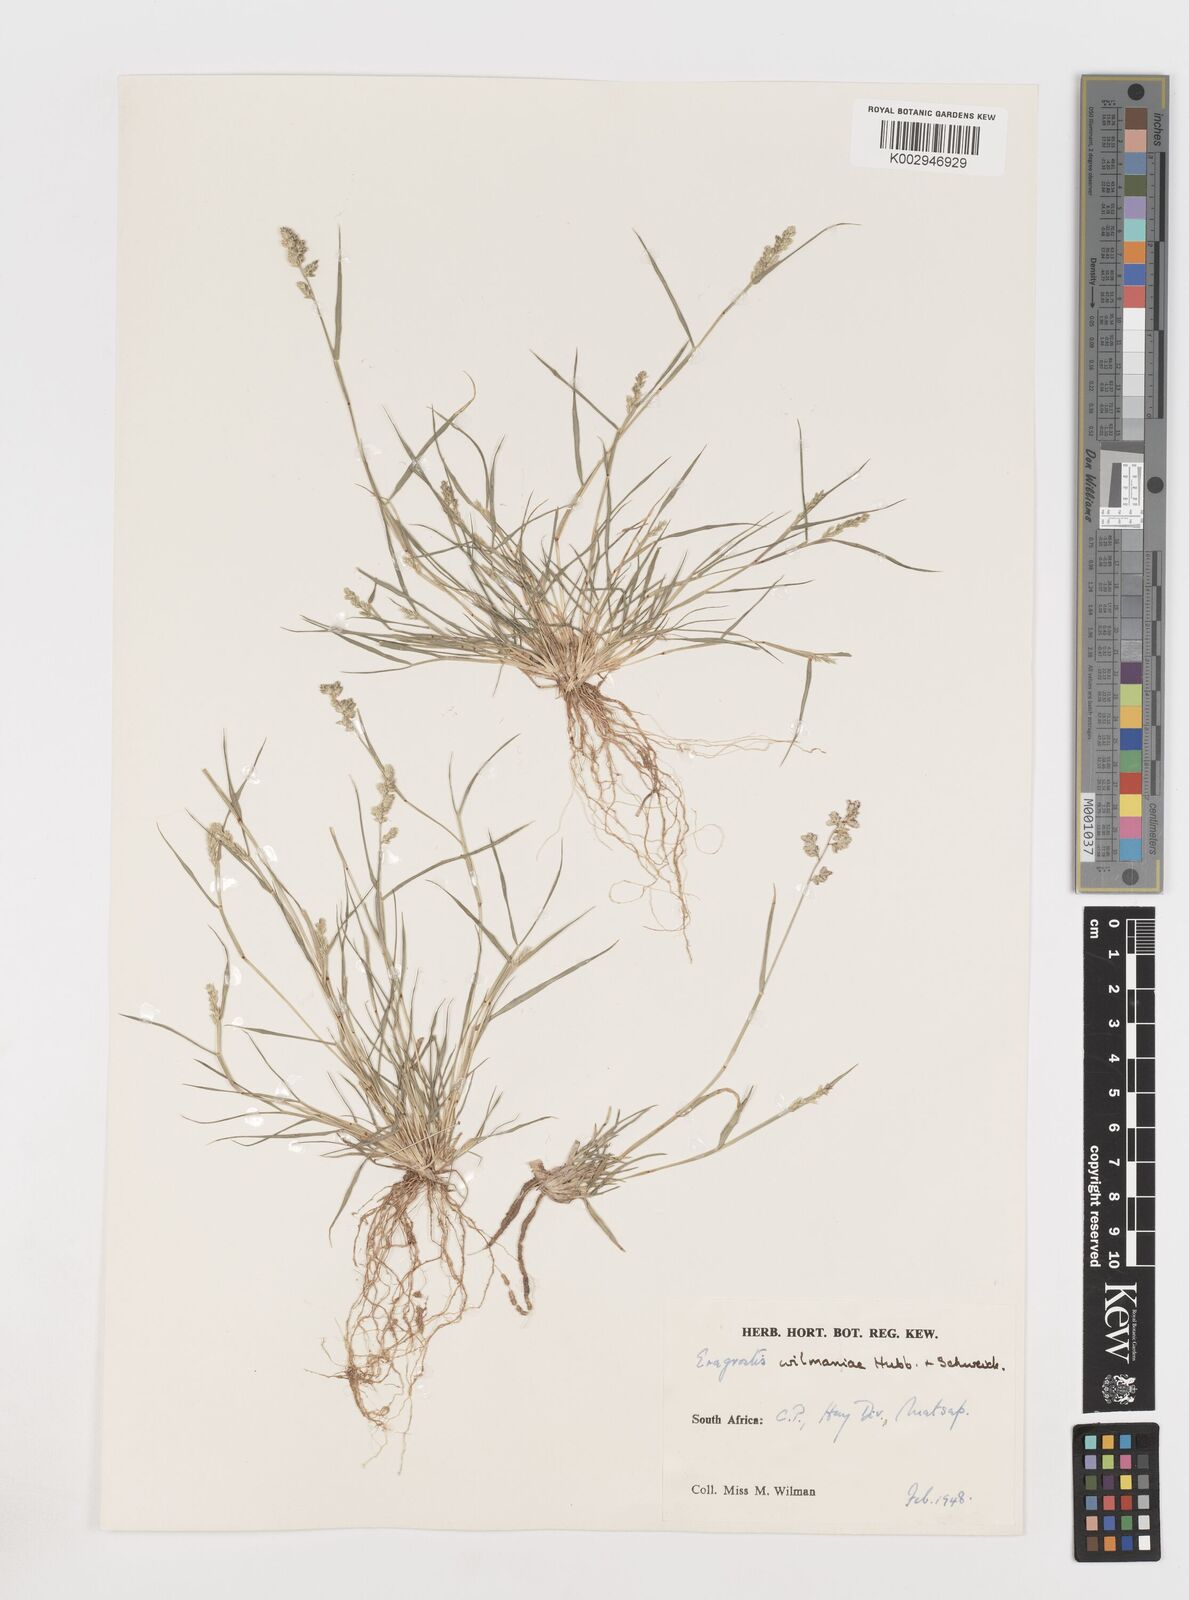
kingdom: Plantae
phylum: Tracheophyta
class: Liliopsida
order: Poales
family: Poaceae
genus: Eragrostis
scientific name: Eragrostis macrochlamys
